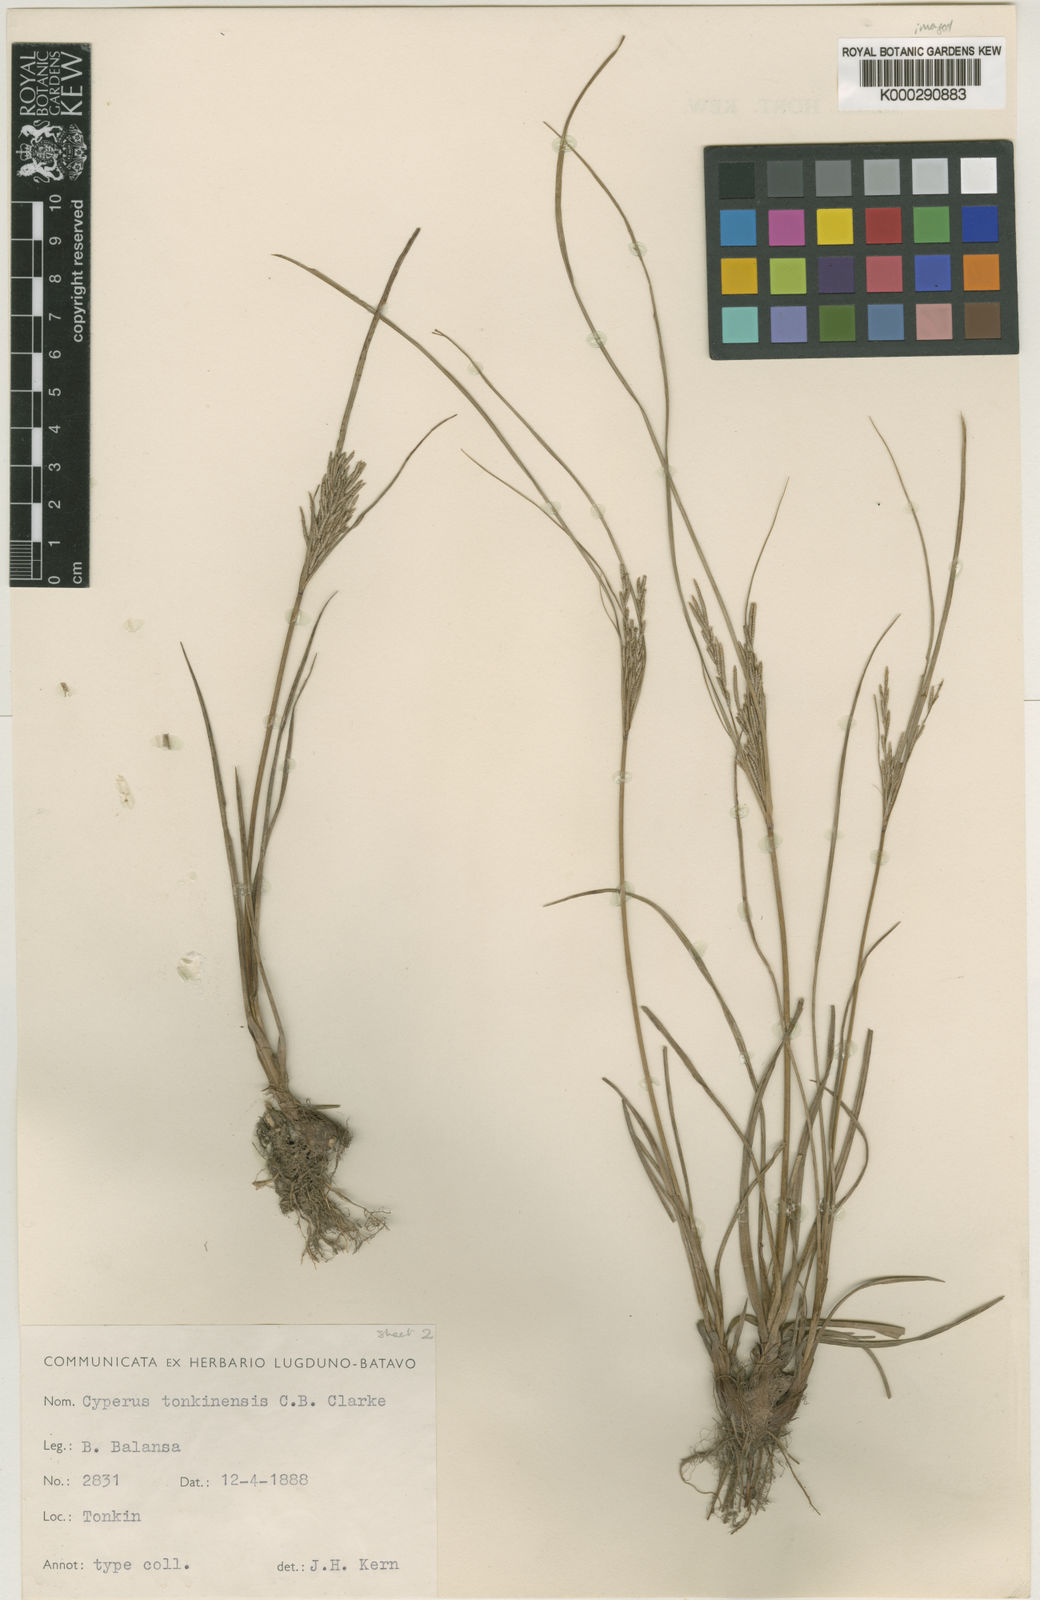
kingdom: Plantae
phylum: Tracheophyta
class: Liliopsida
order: Poales
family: Cyperaceae
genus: Cyperus
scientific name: Cyperus tonkinensis
